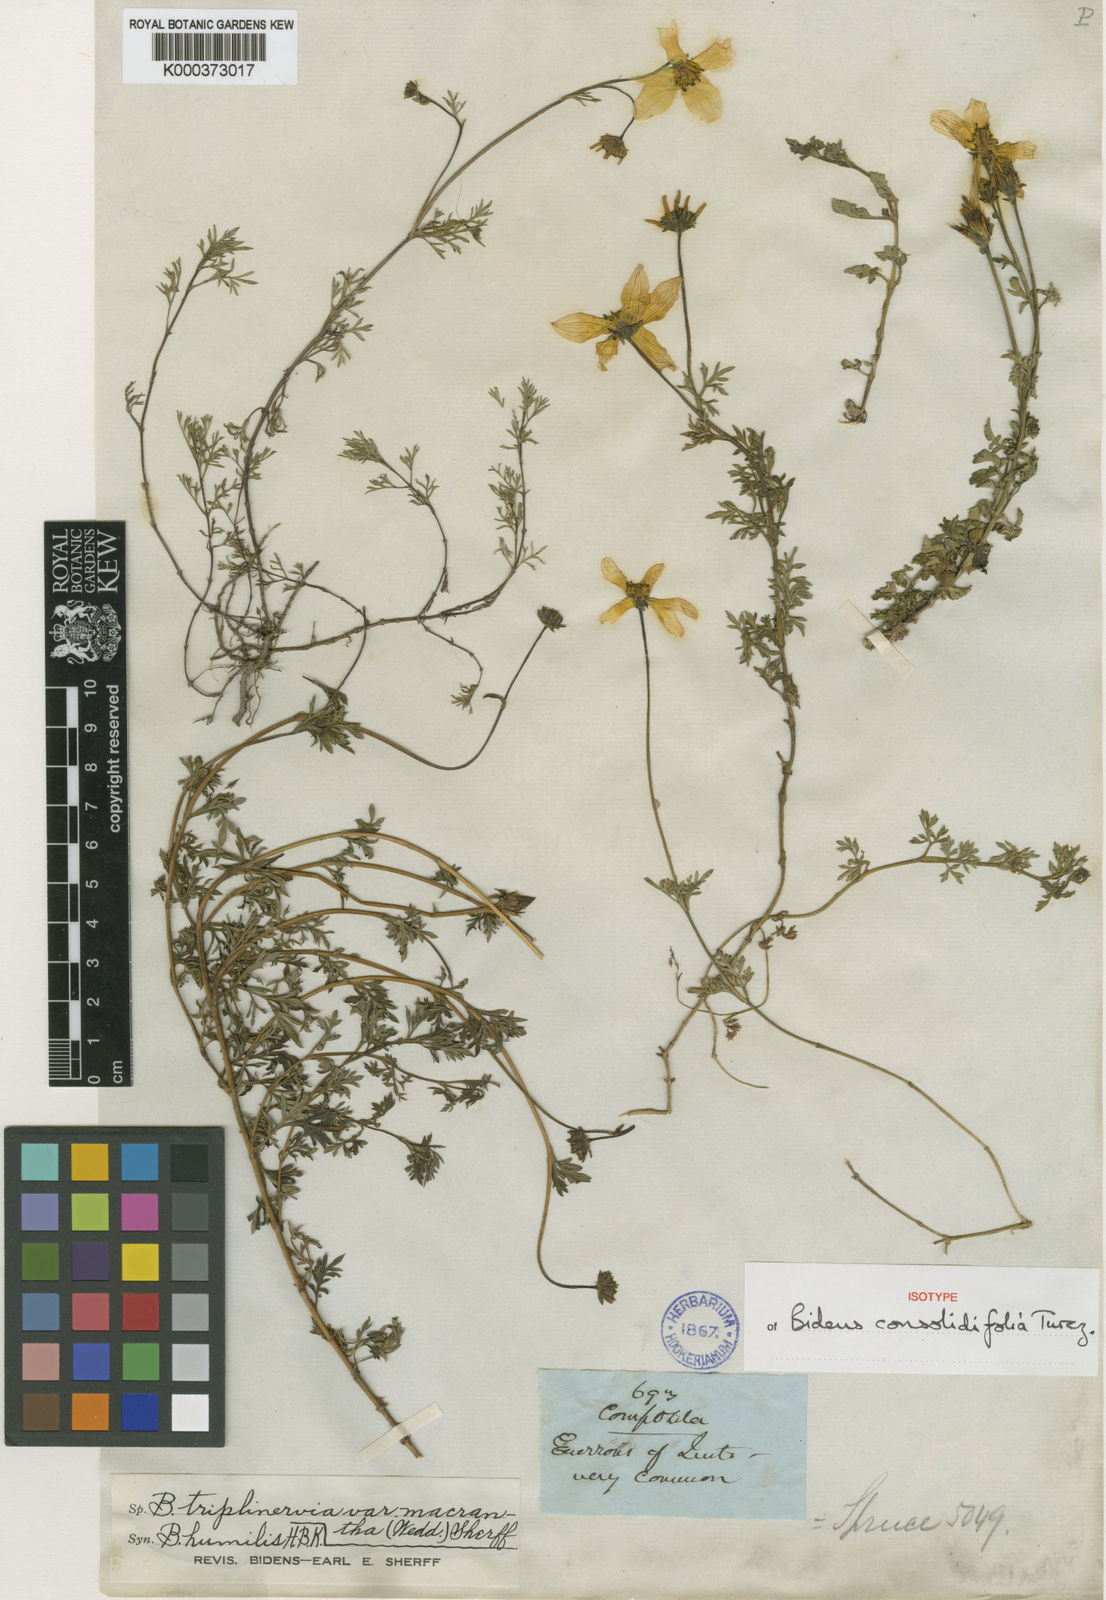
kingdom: Plantae
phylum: Tracheophyta
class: Magnoliopsida
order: Asterales
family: Asteraceae
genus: Bidens
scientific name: Bidens triplinervia
